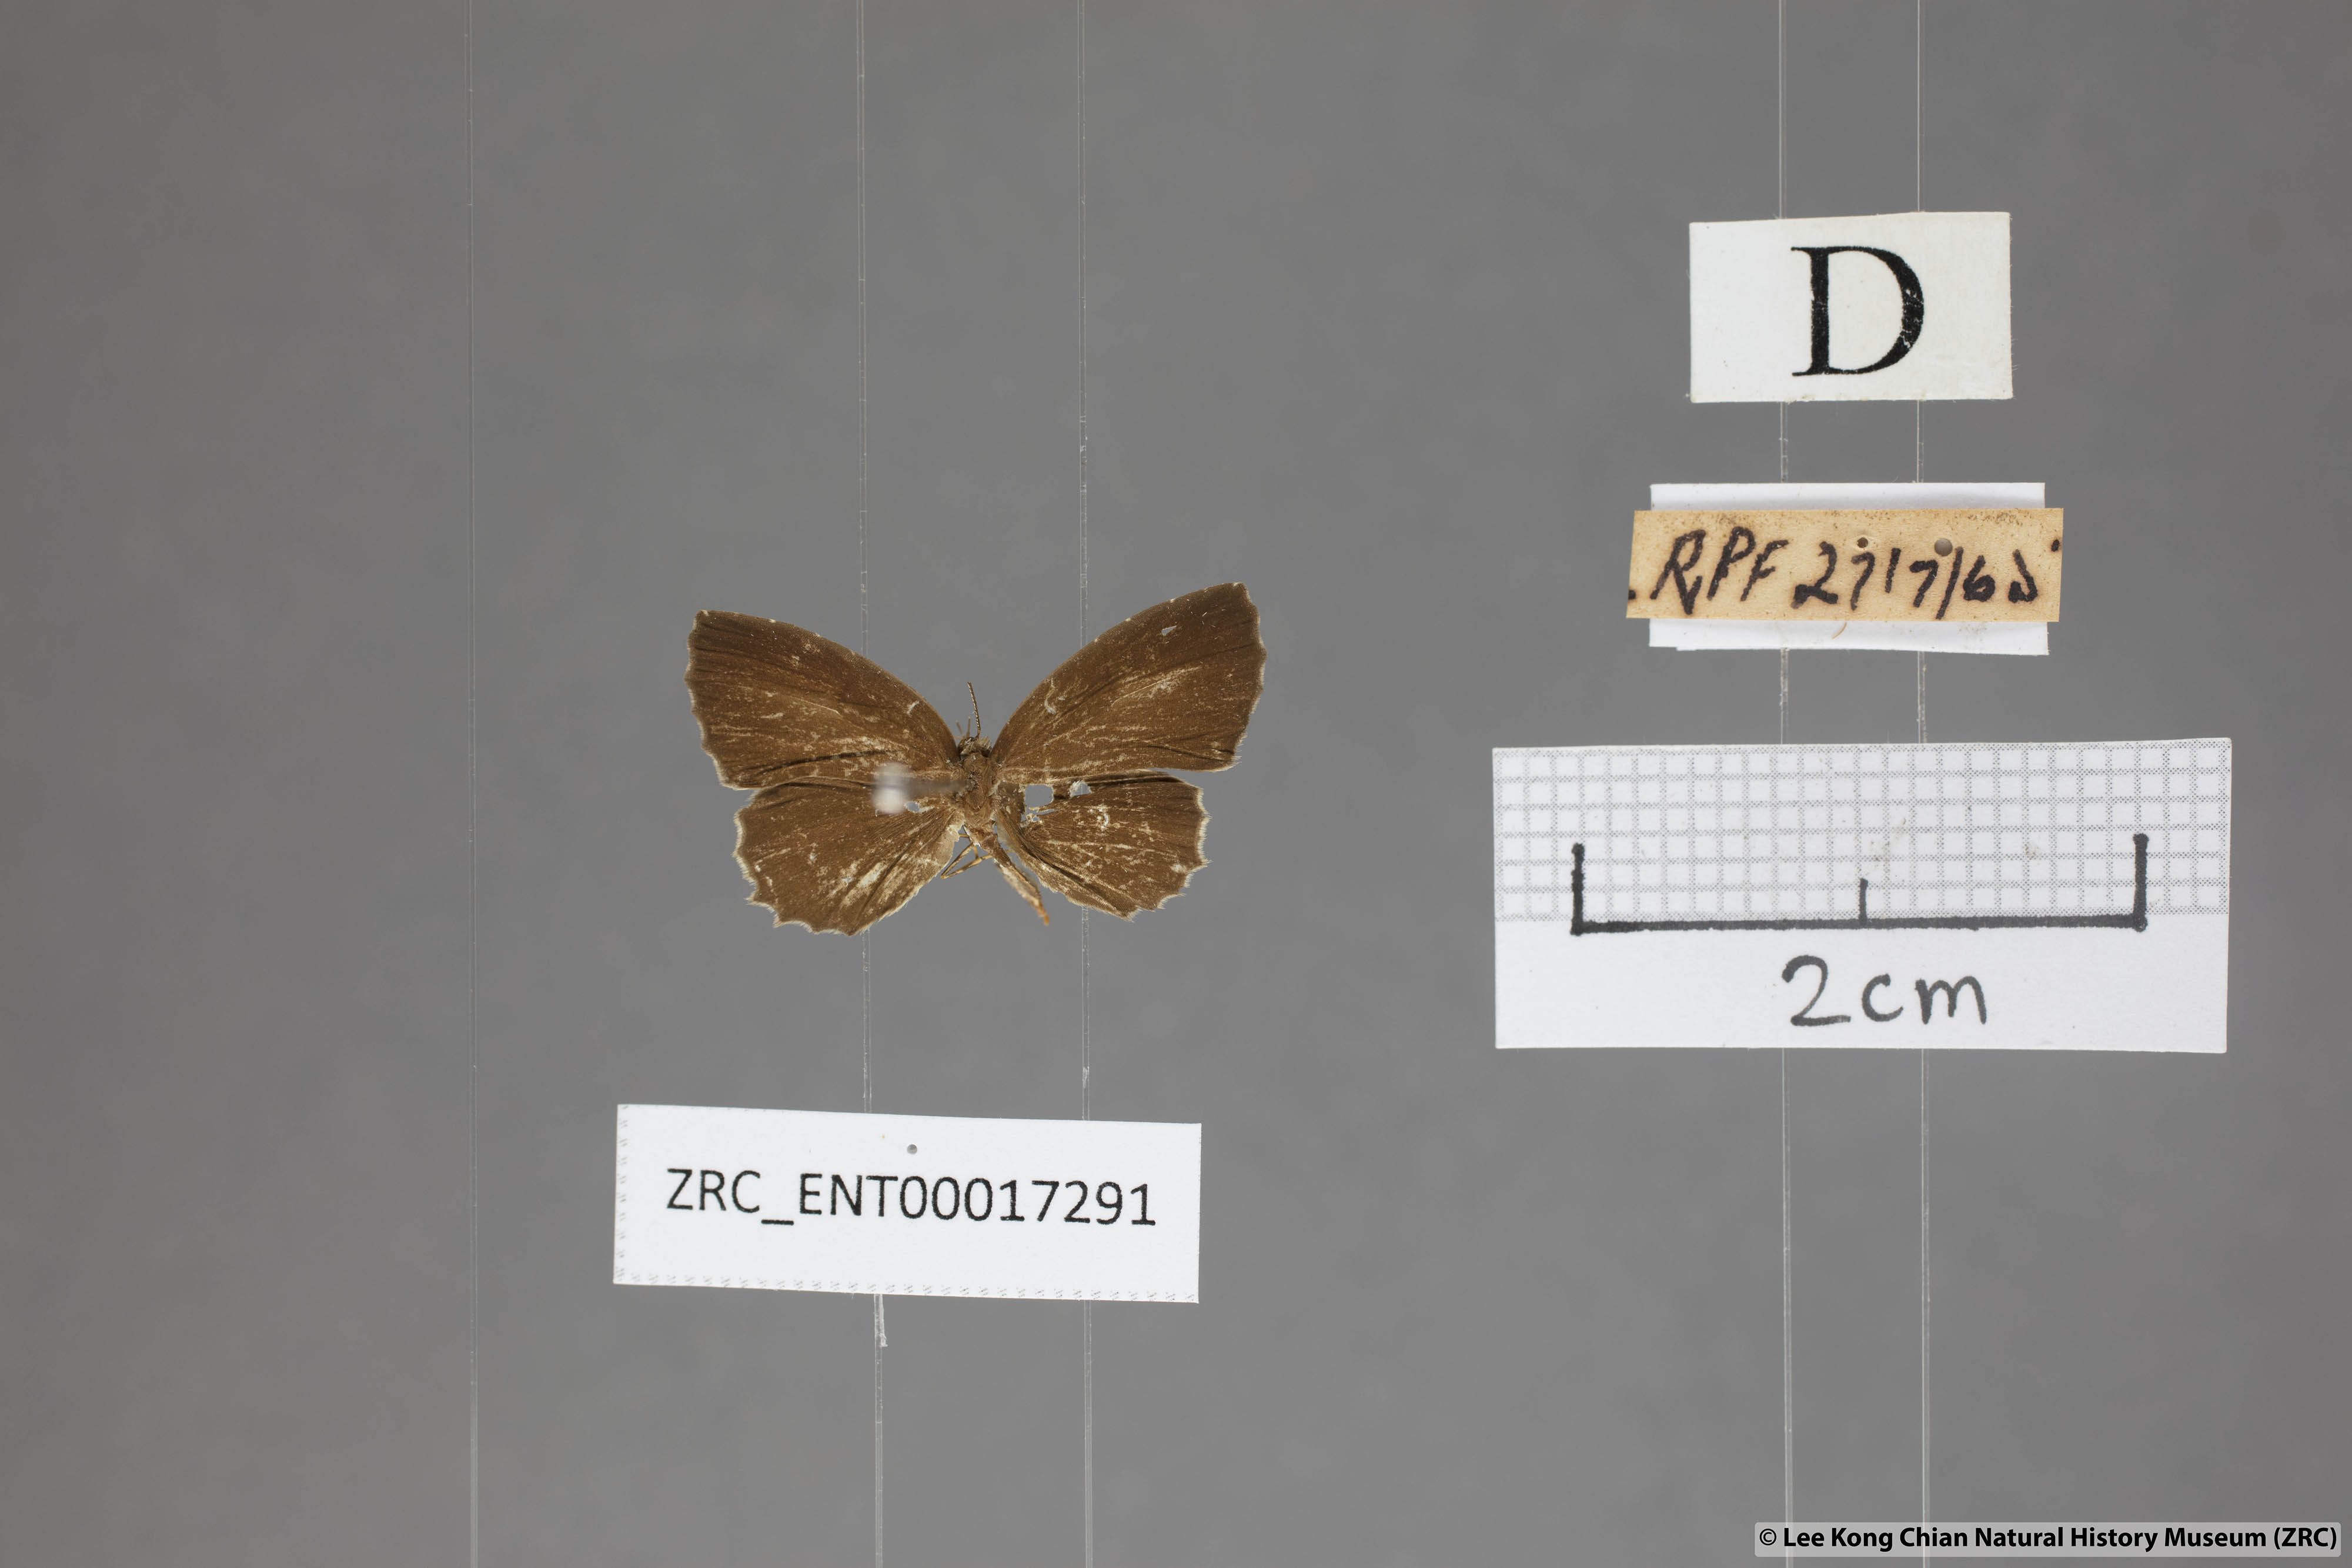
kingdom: Animalia
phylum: Arthropoda
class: Insecta
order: Lepidoptera
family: Lycaenidae
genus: Allotinus
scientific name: Allotinus substrigosa
